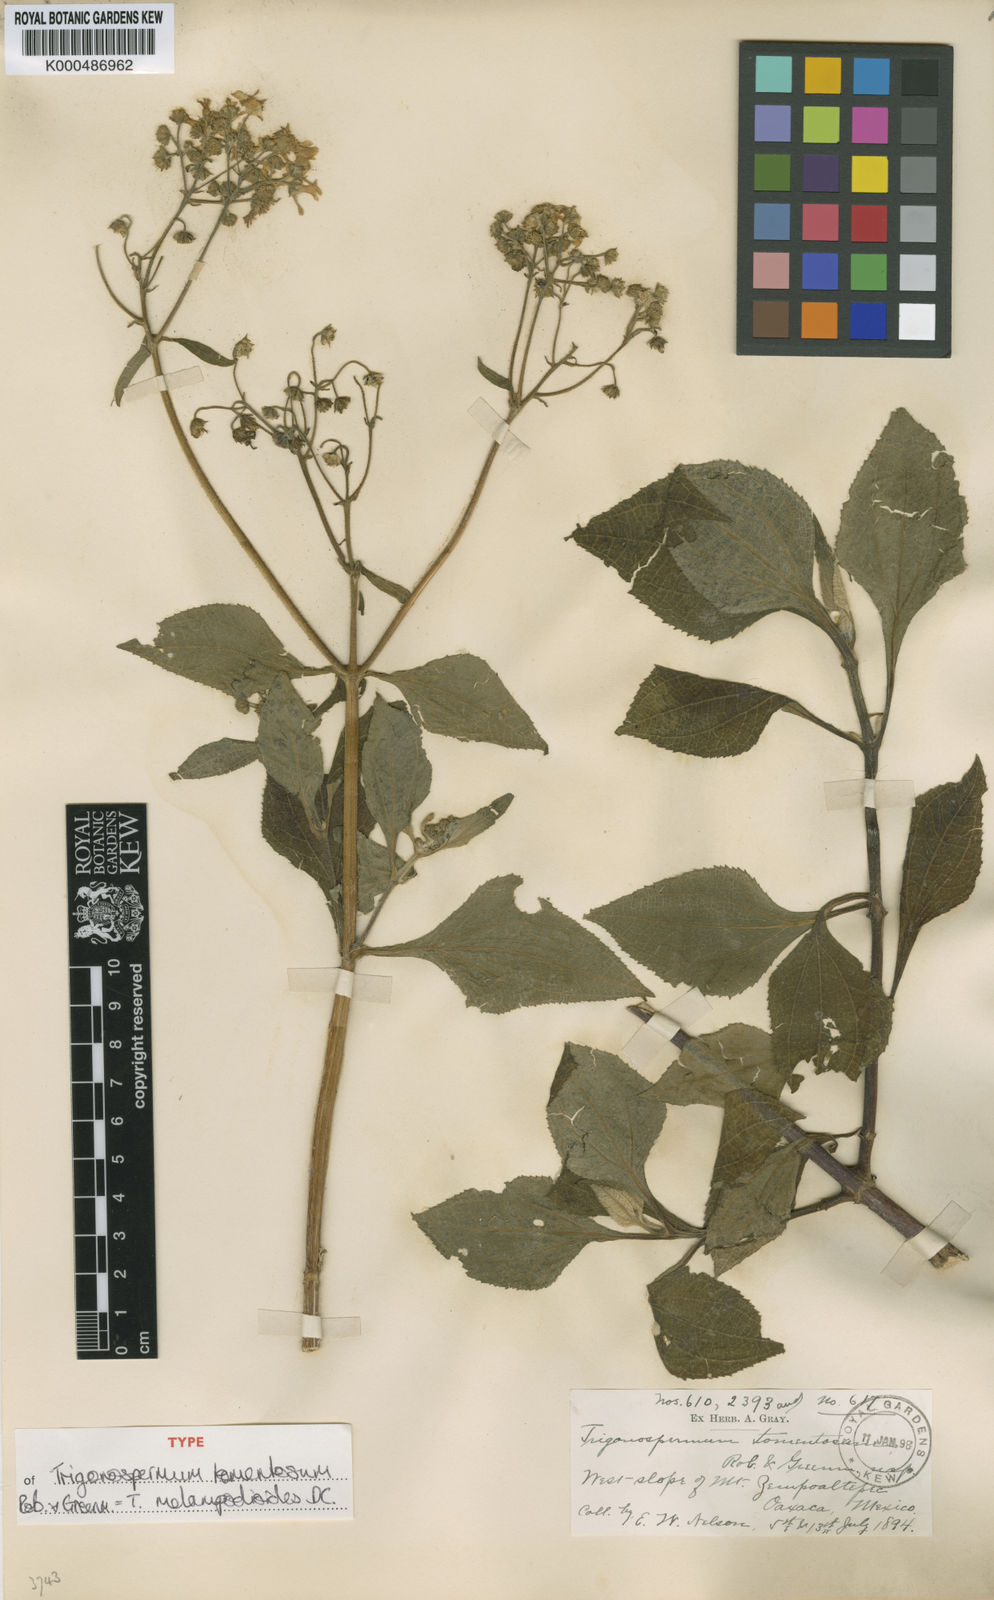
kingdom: Plantae
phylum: Tracheophyta
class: Magnoliopsida
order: Asterales
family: Asteraceae
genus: Trigonospermum
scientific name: Trigonospermum melampodioides
